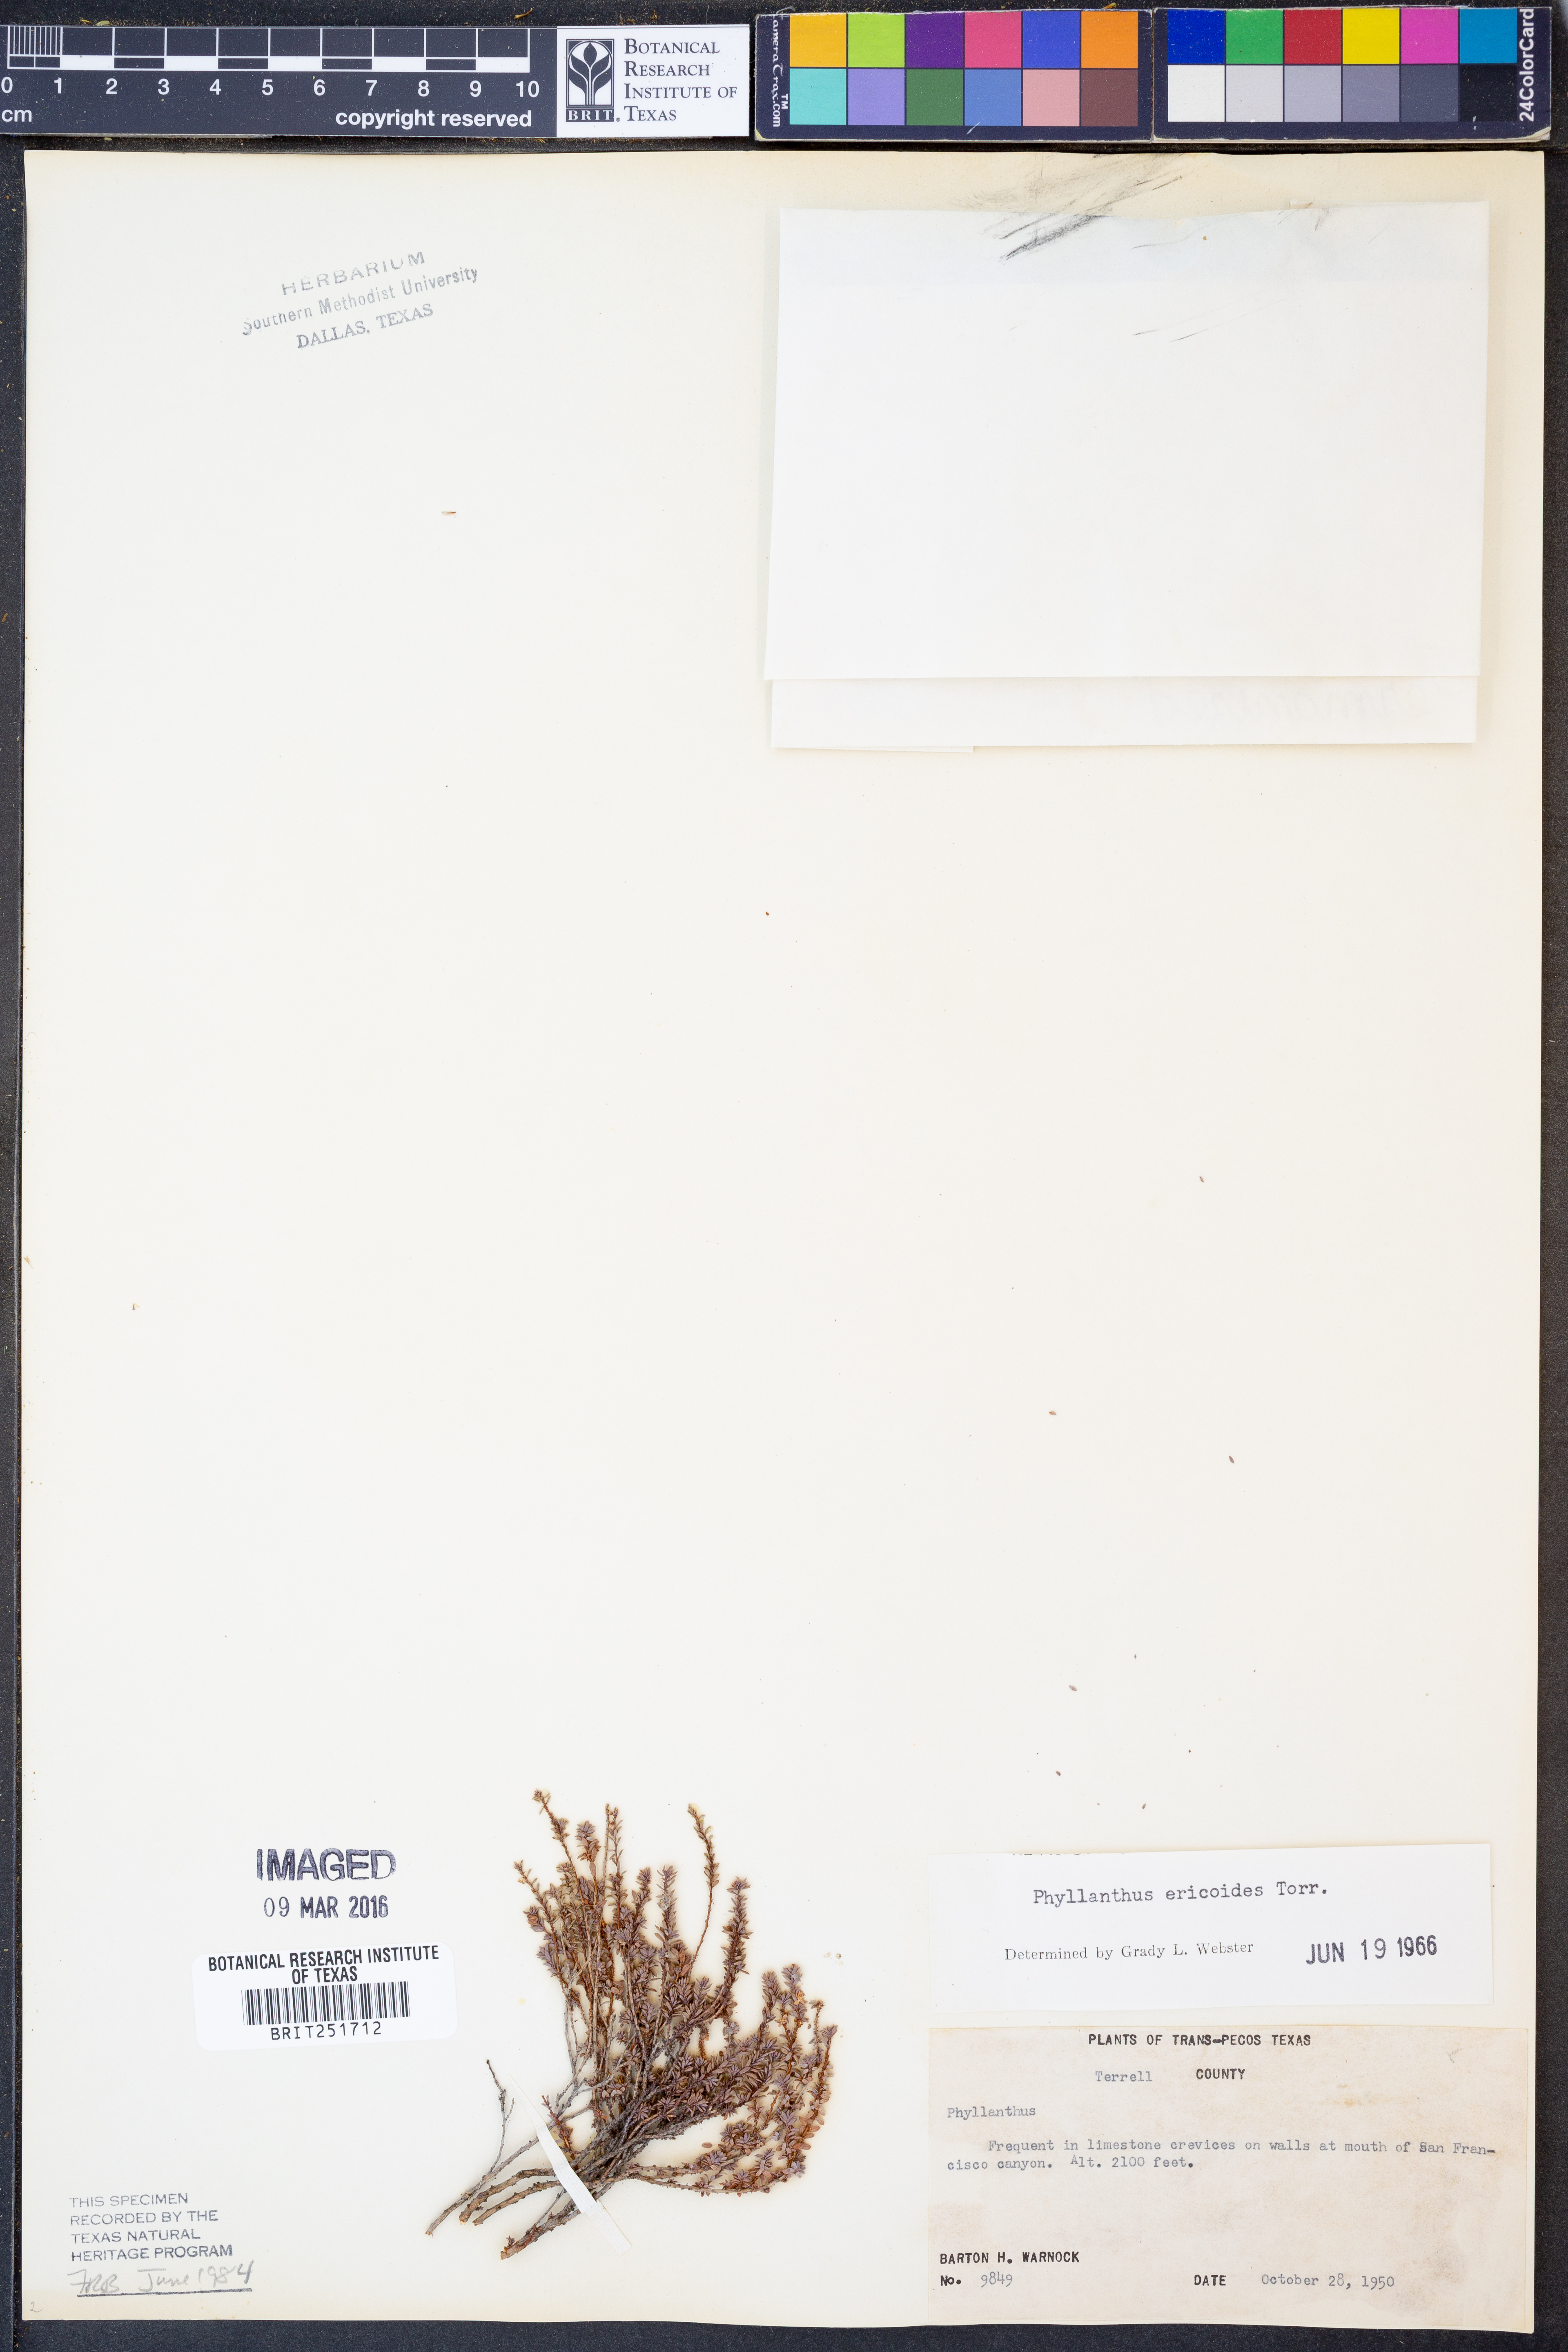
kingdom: Plantae
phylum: Tracheophyta
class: Magnoliopsida
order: Malpighiales
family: Phyllanthaceae
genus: Phyllanthus
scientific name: Phyllanthus ericoides
